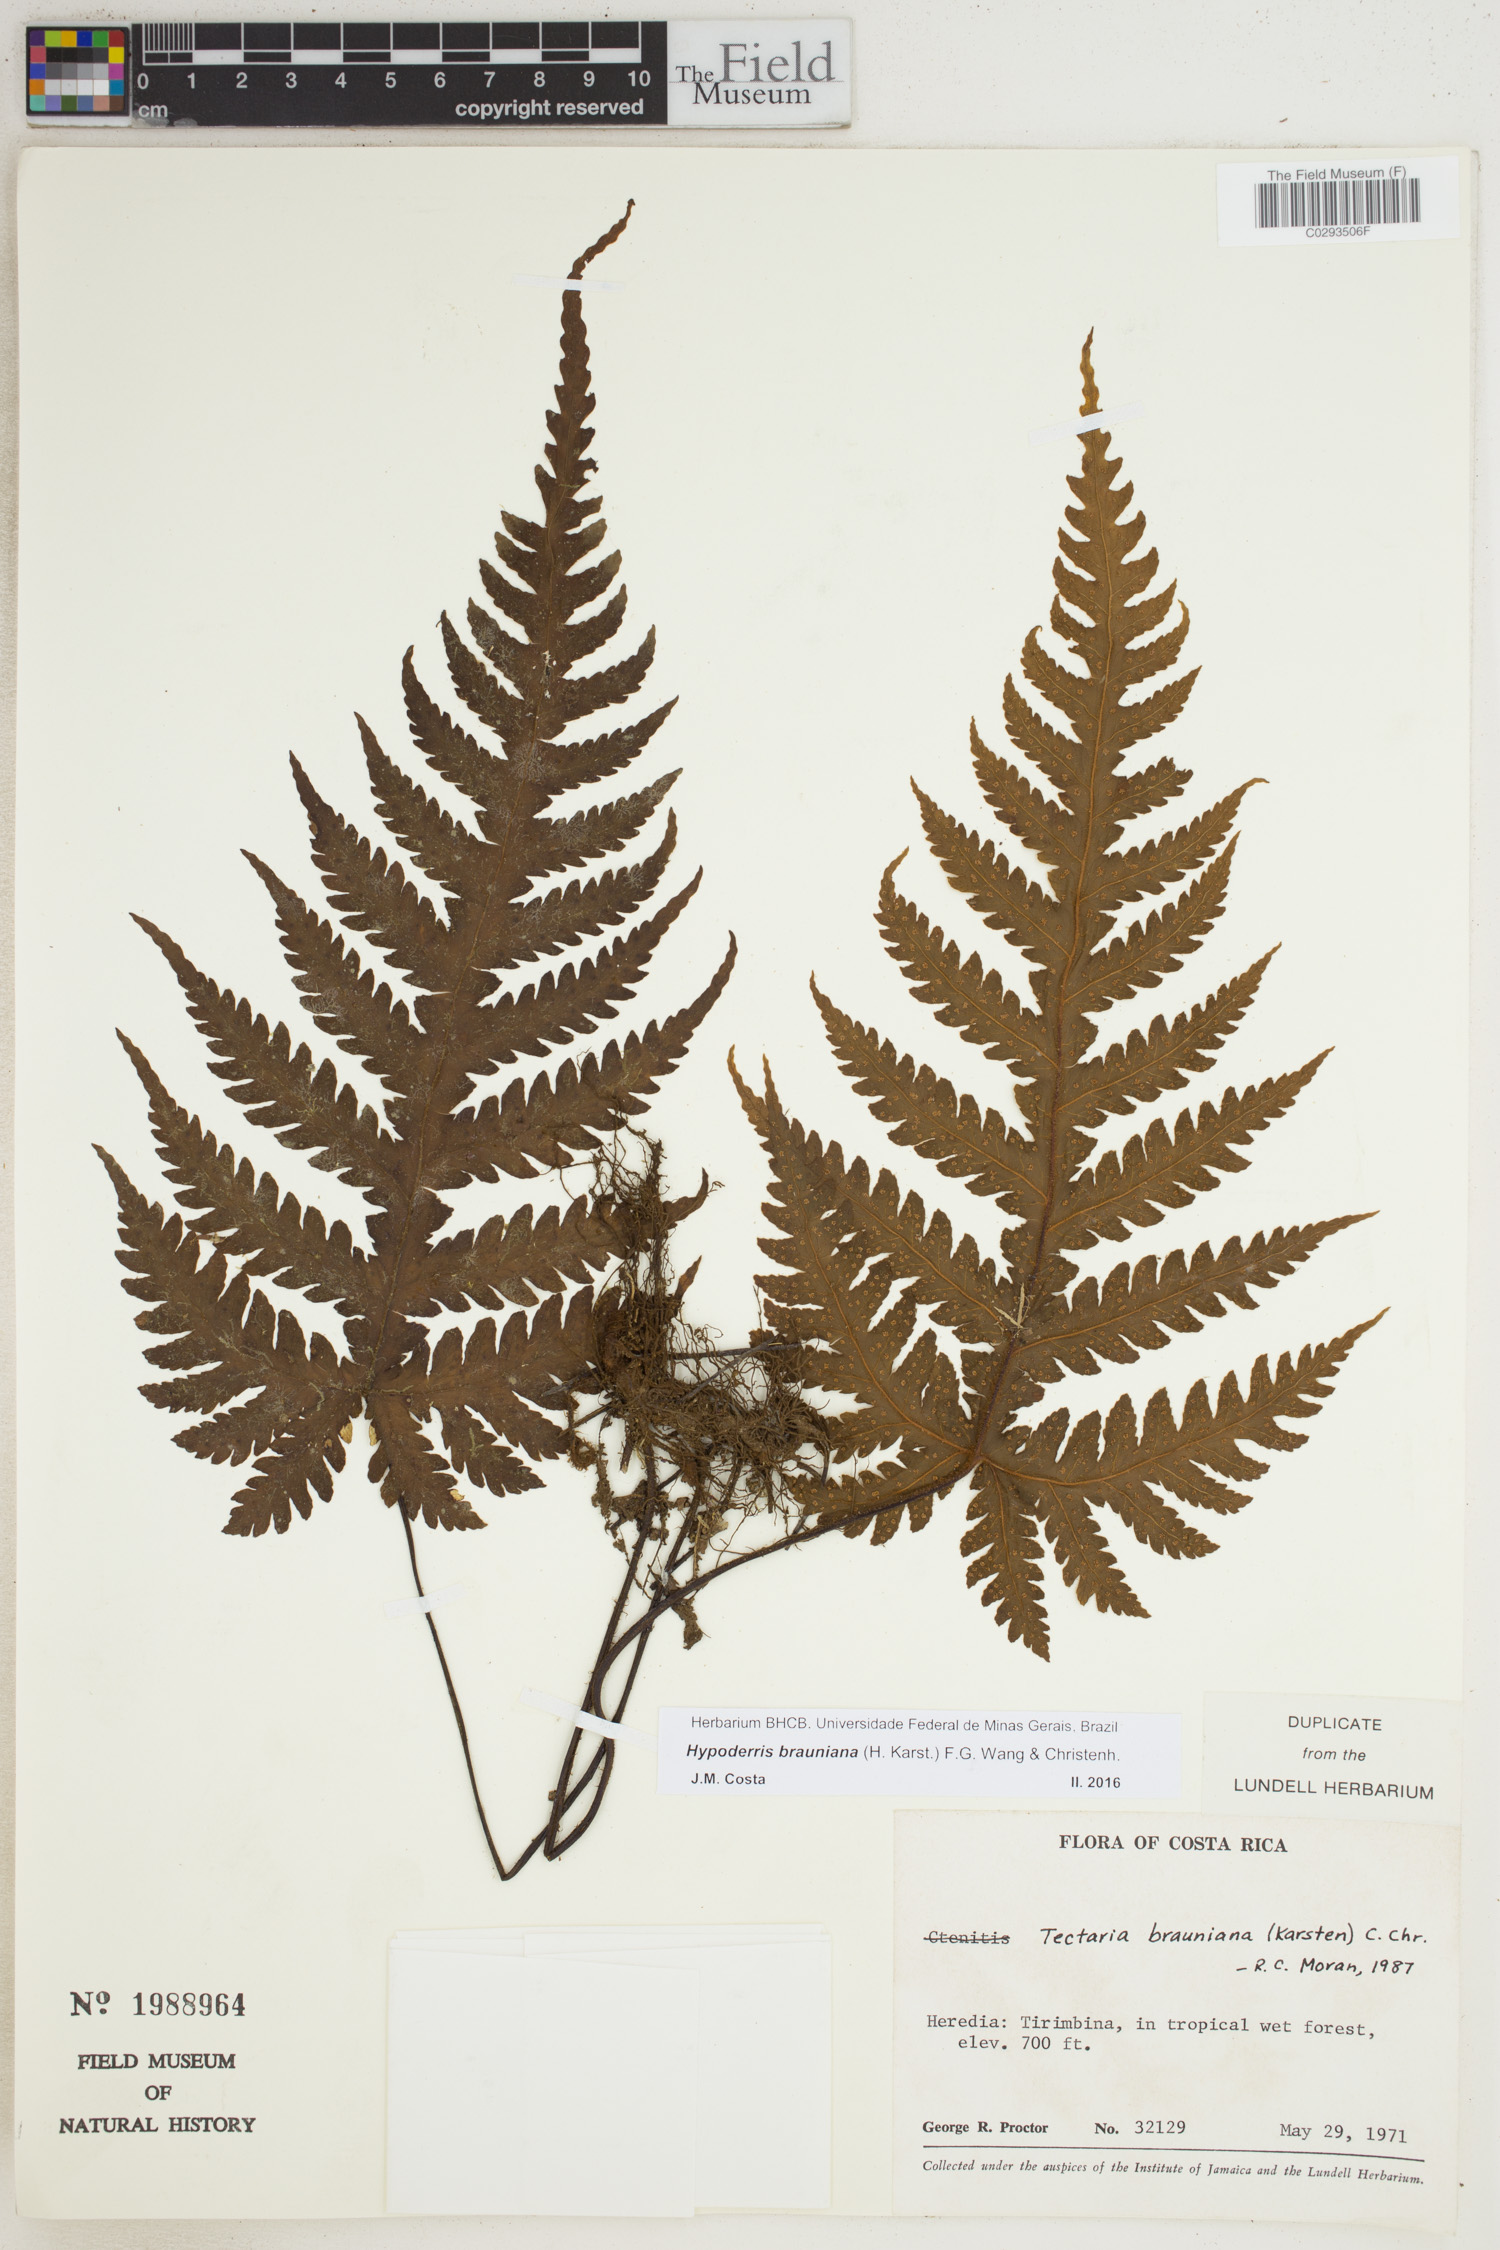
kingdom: Plantae
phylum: Tracheophyta
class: Polypodiopsida
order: Polypodiales
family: Tectariaceae
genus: Hypoderris
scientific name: Hypoderris brauniana
